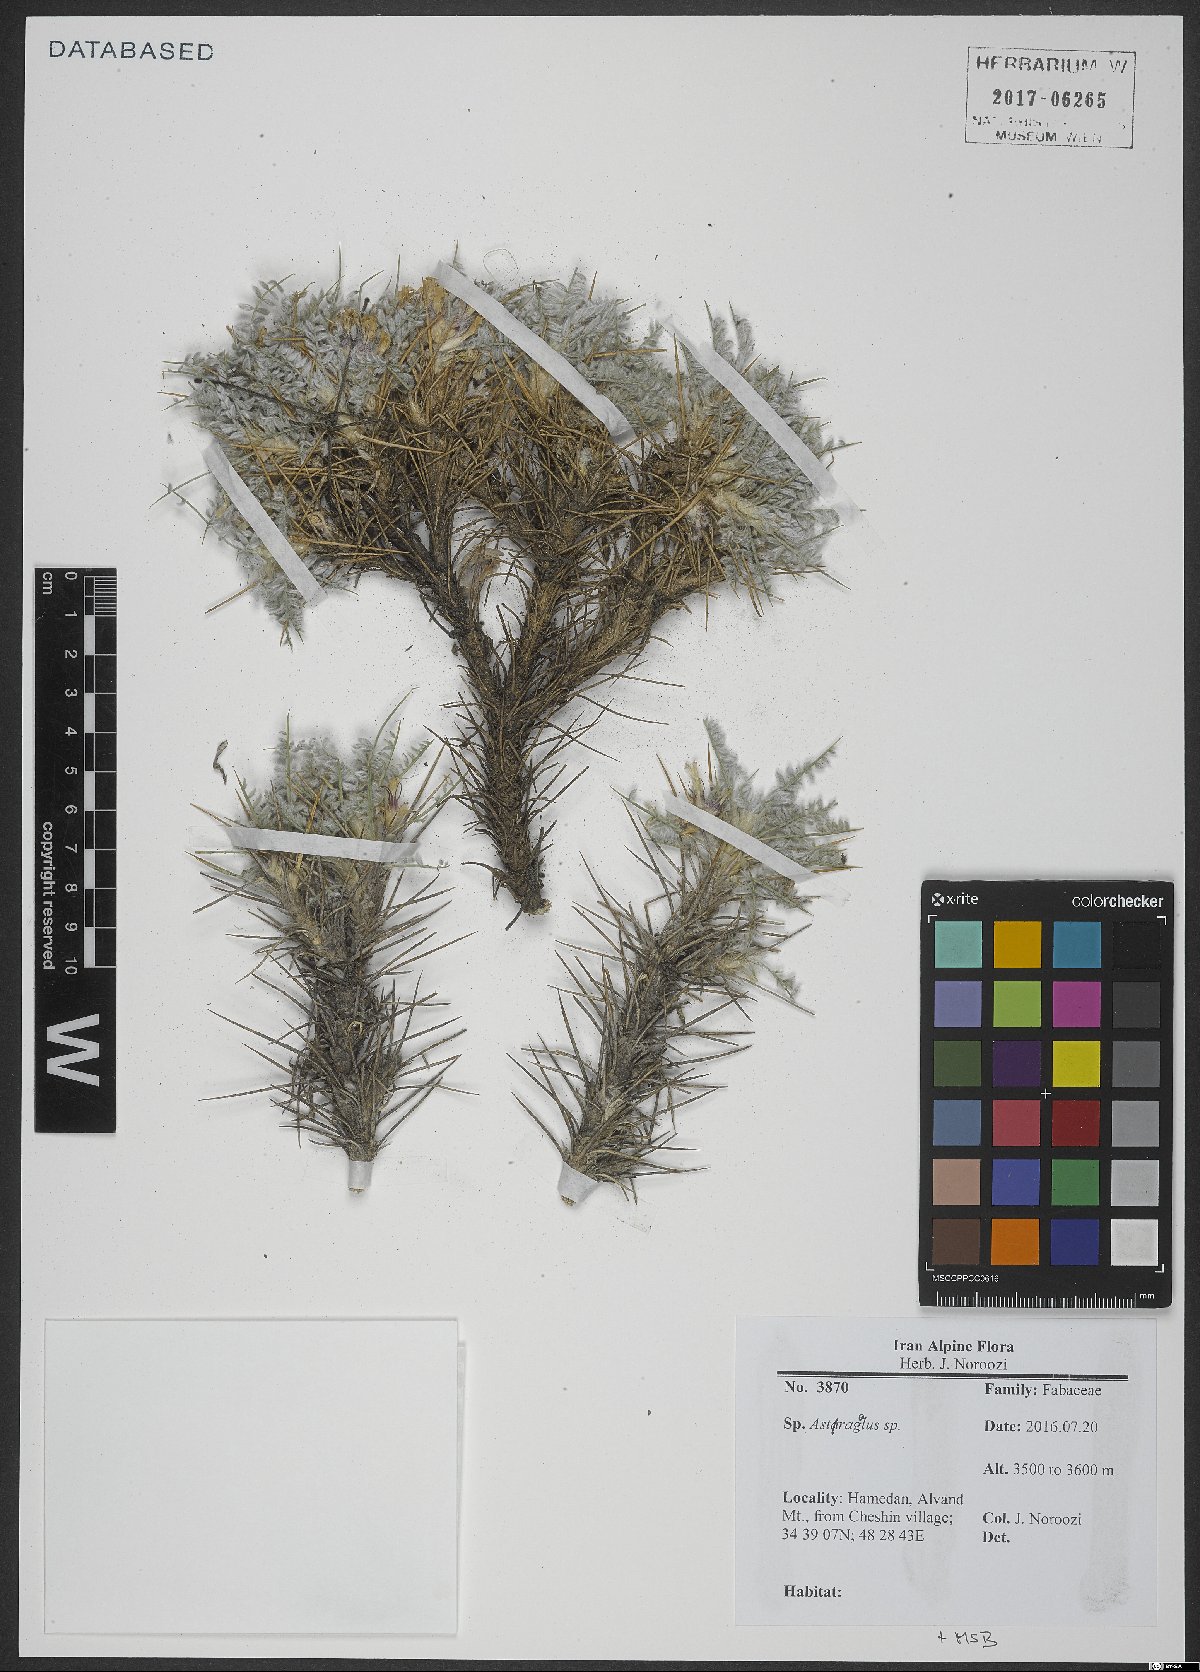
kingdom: Plantae
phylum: Tracheophyta
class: Magnoliopsida
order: Fabales
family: Fabaceae
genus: Astragalus
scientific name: Astragalus
